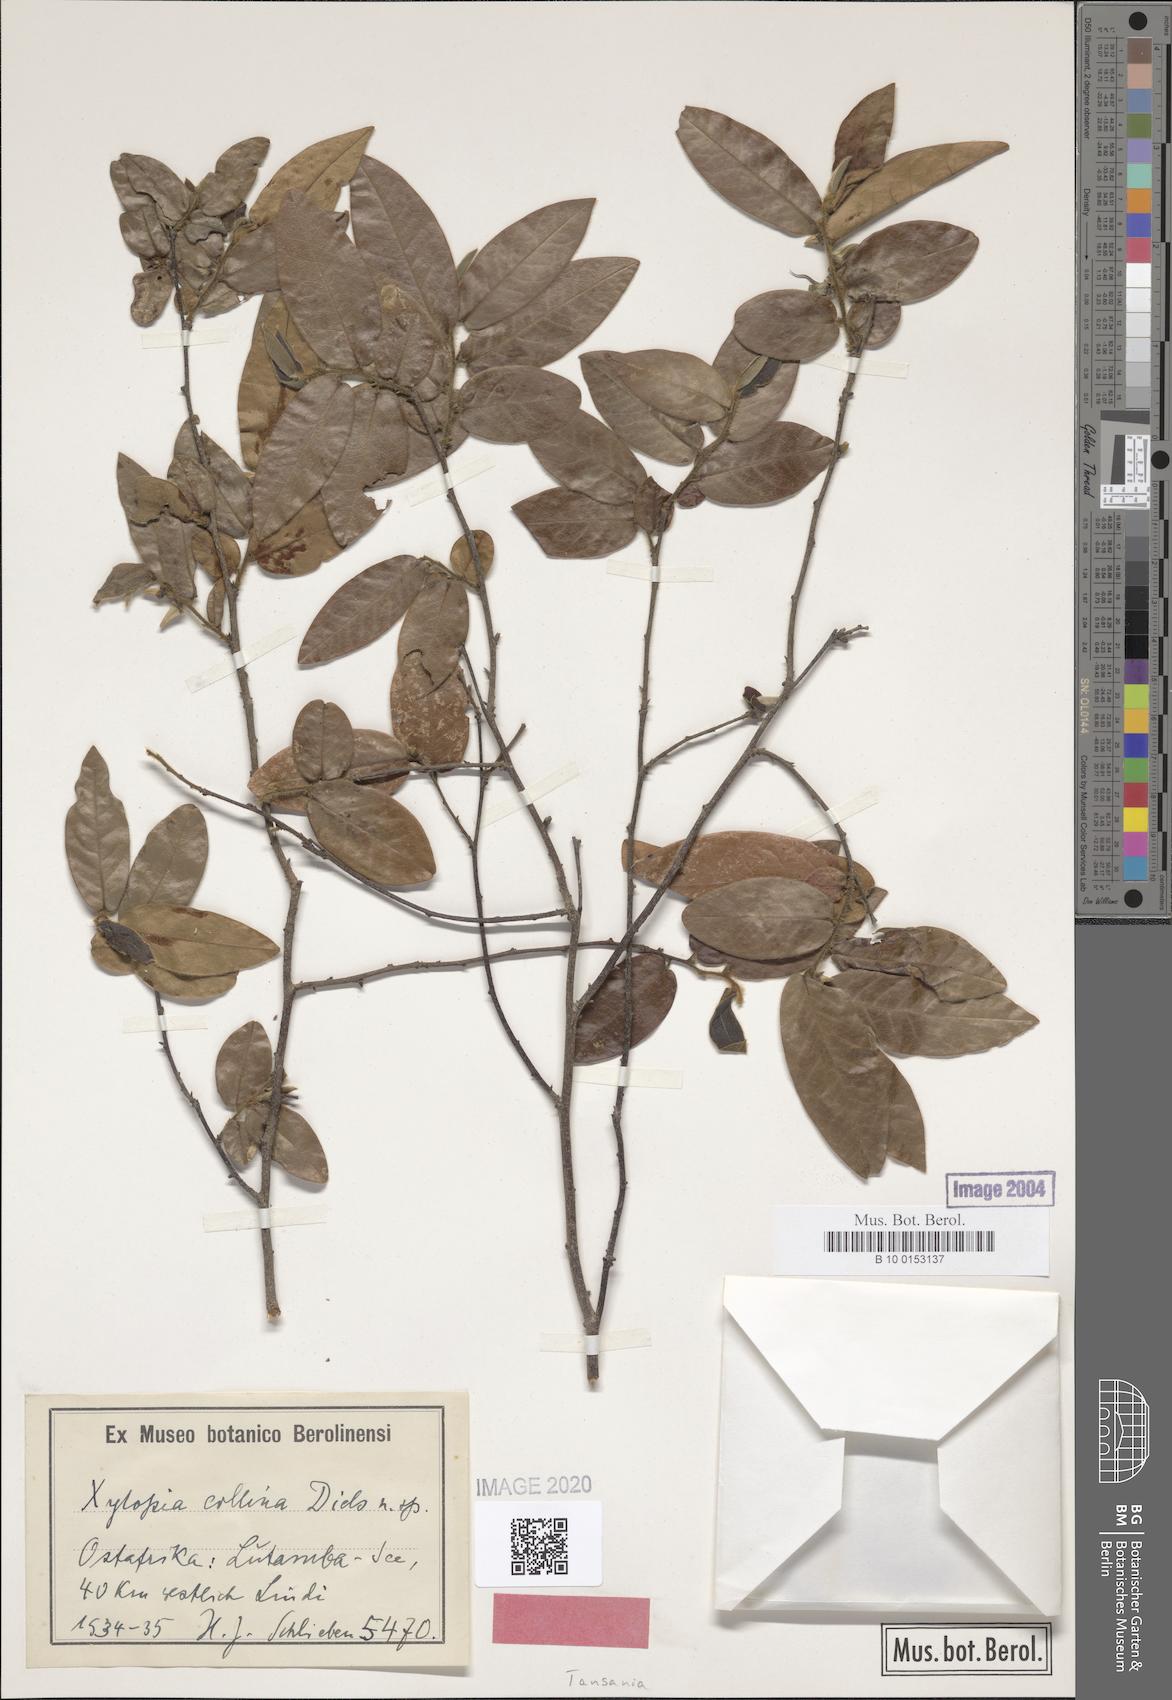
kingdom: Plantae
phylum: Tracheophyta
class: Magnoliopsida
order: Magnoliales
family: Annonaceae
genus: Xylopia
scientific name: Xylopia collina
